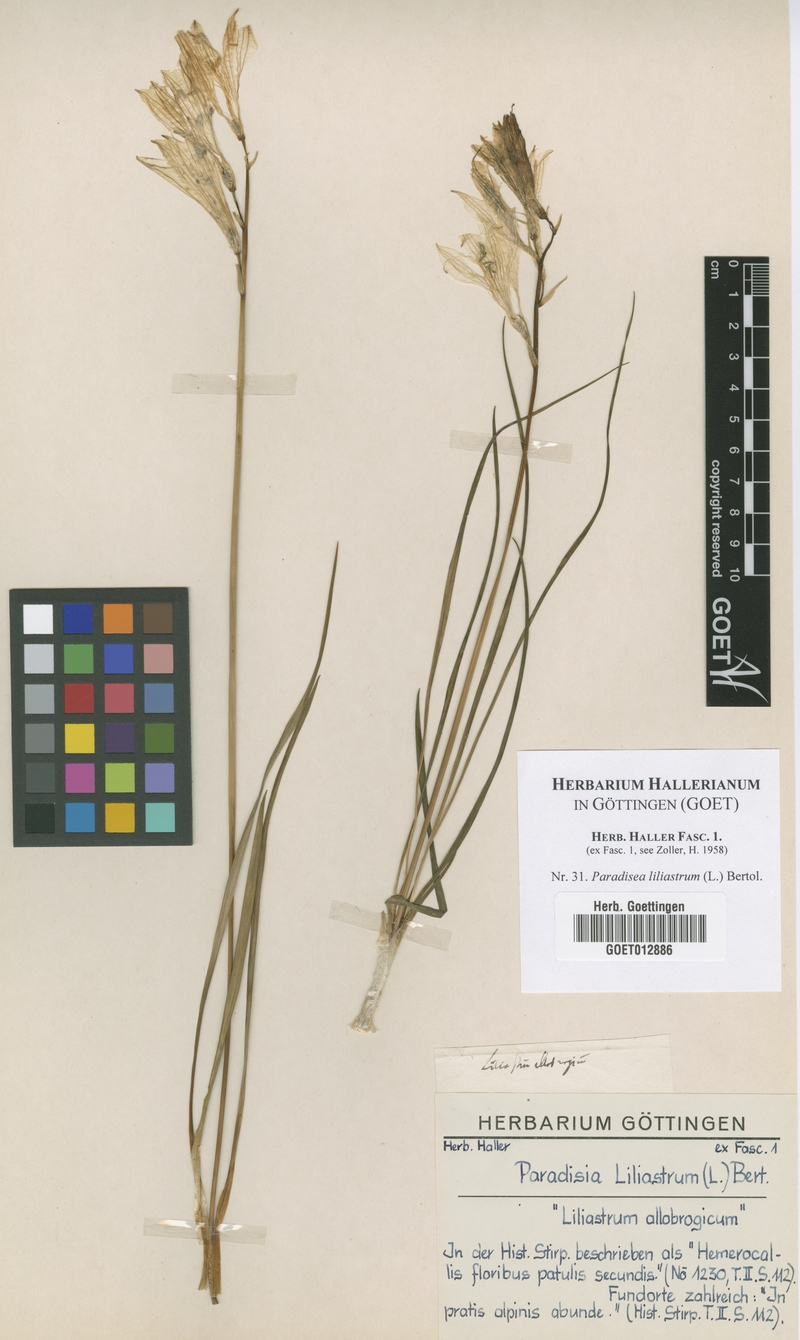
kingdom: Plantae
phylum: Tracheophyta
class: Liliopsida
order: Asparagales
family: Asparagaceae
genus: Paradisea
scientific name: Paradisea liliastrum
